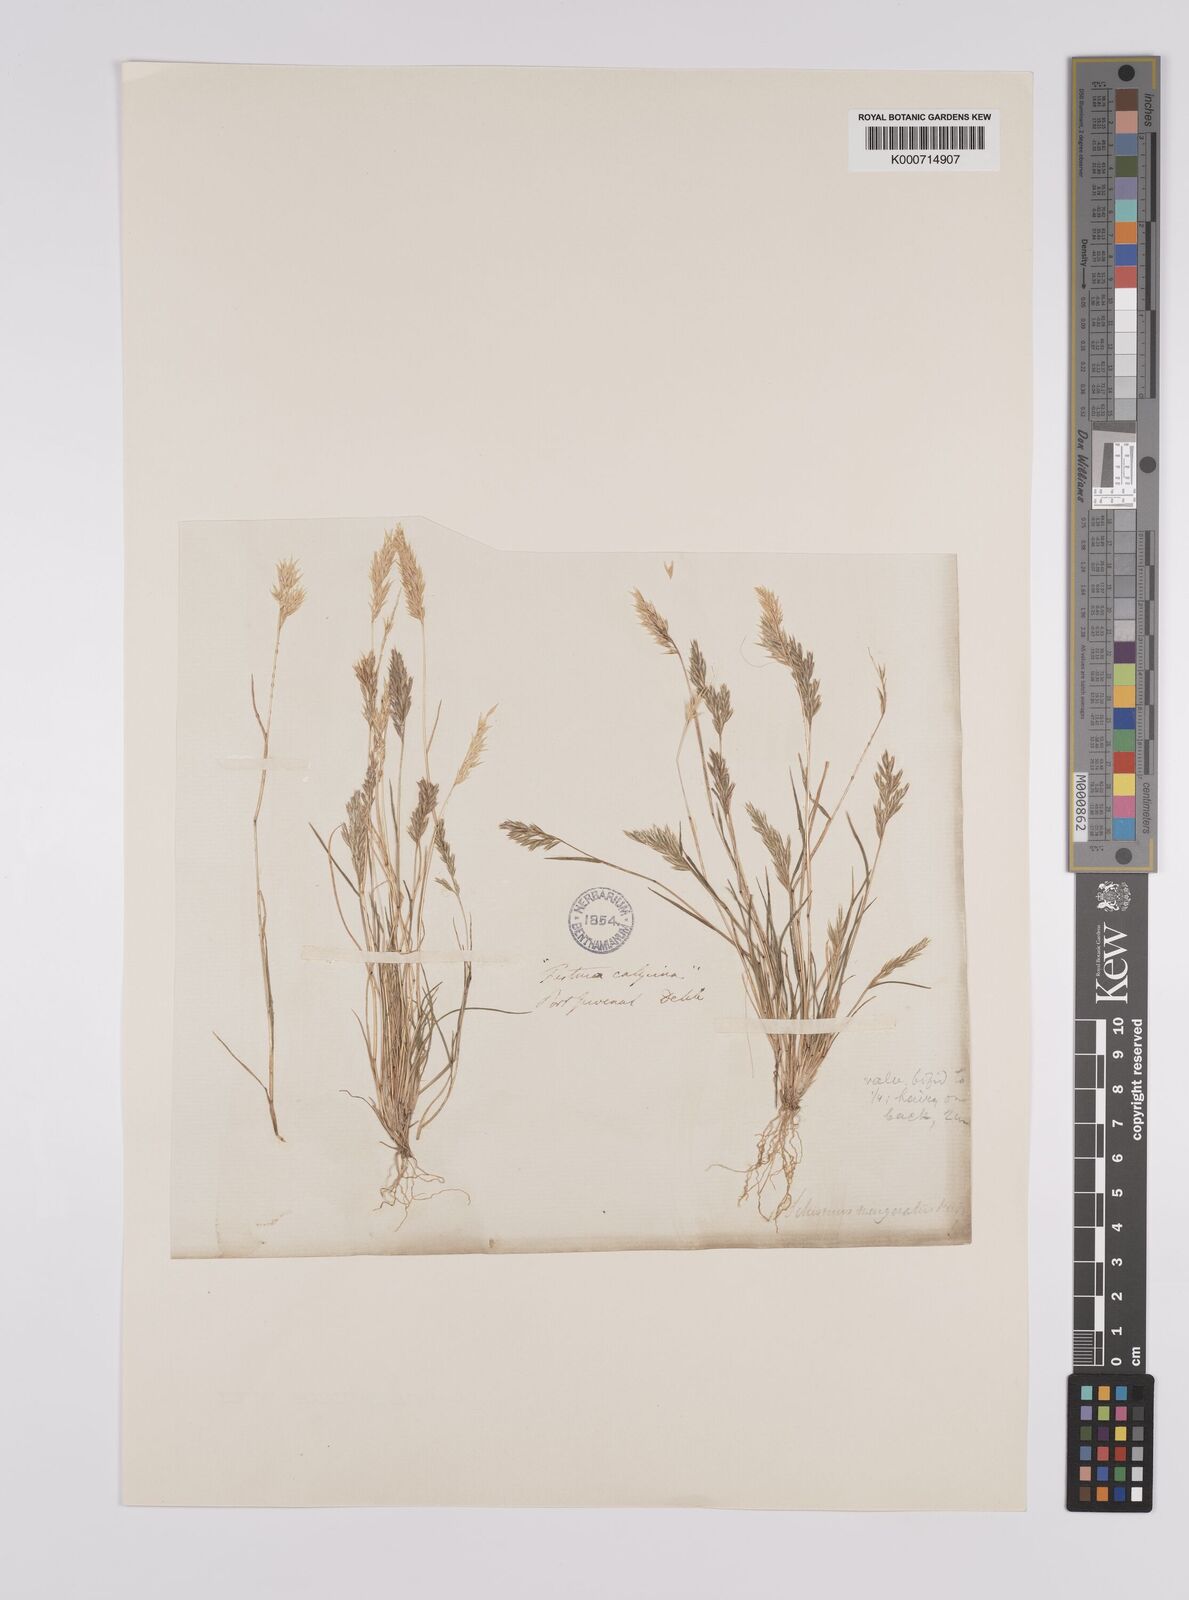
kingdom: Plantae
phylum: Tracheophyta
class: Liliopsida
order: Poales
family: Poaceae
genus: Schismus
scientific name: Schismus barbatus
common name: Kelch-grass
